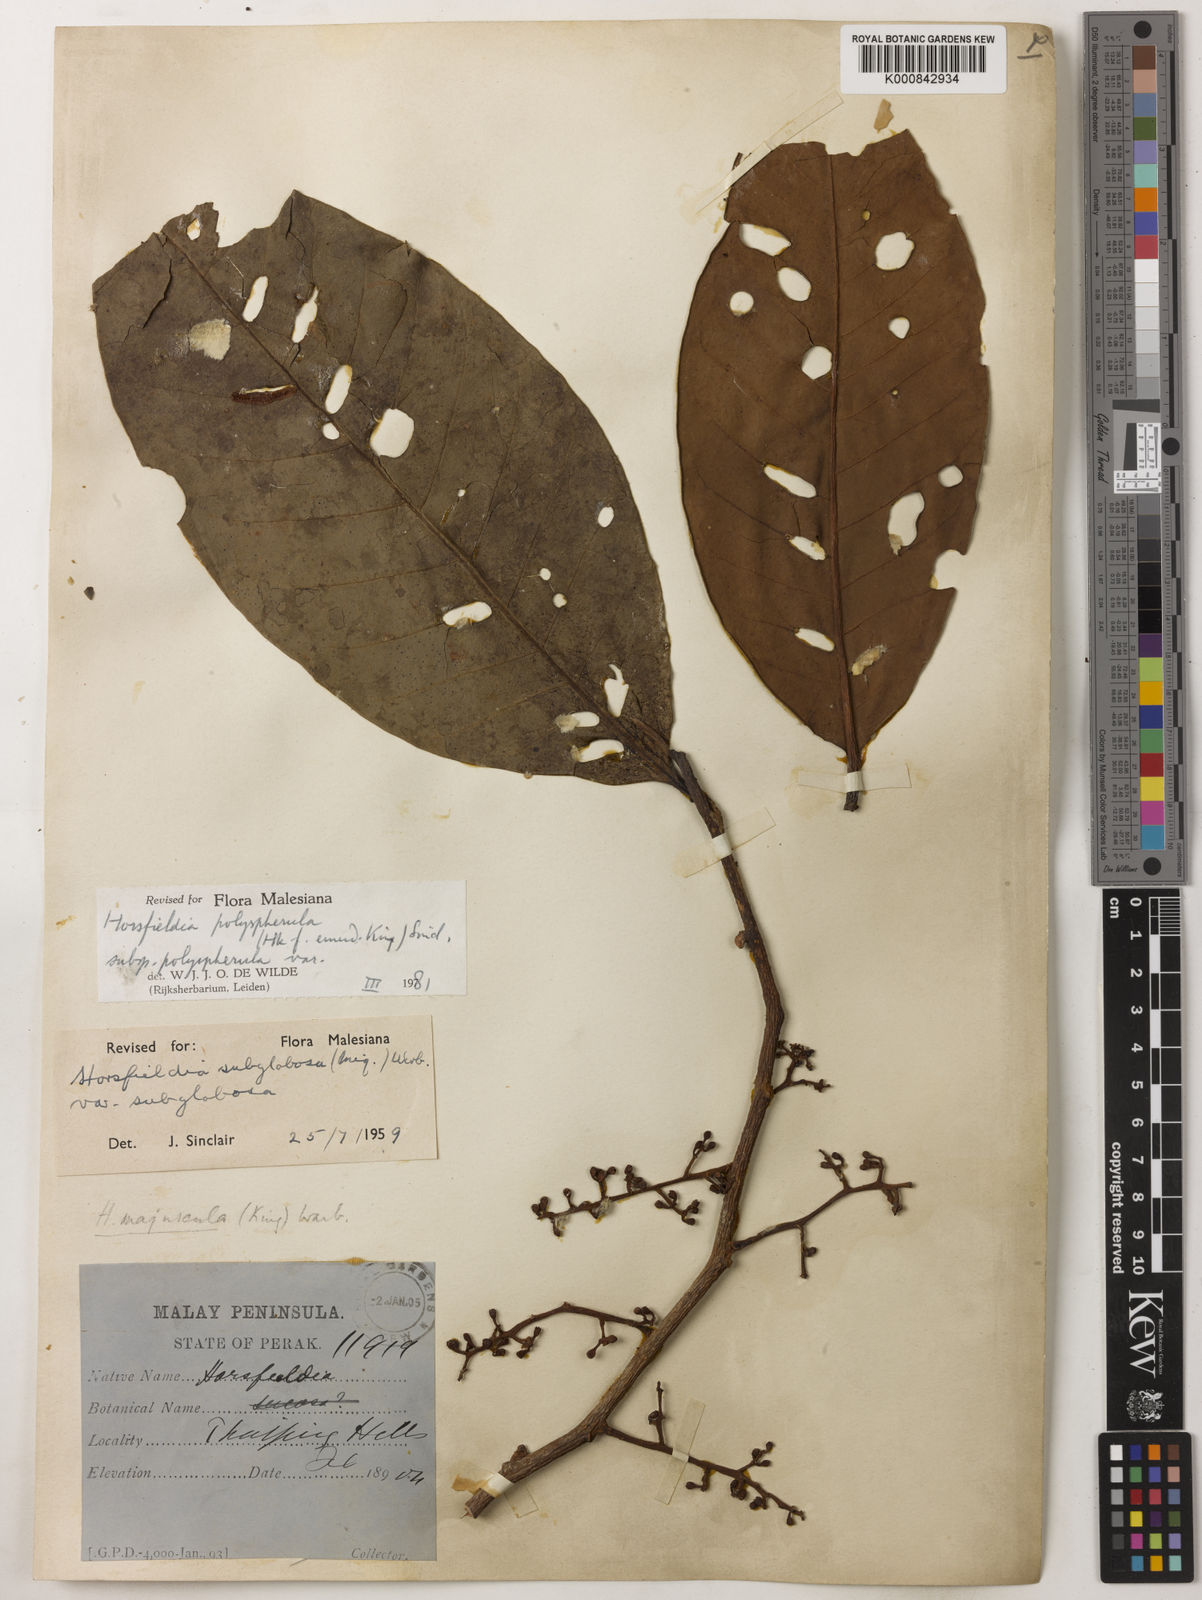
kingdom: Plantae
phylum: Tracheophyta
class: Magnoliopsida
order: Magnoliales
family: Myristicaceae
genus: Horsfieldia
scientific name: Horsfieldia
